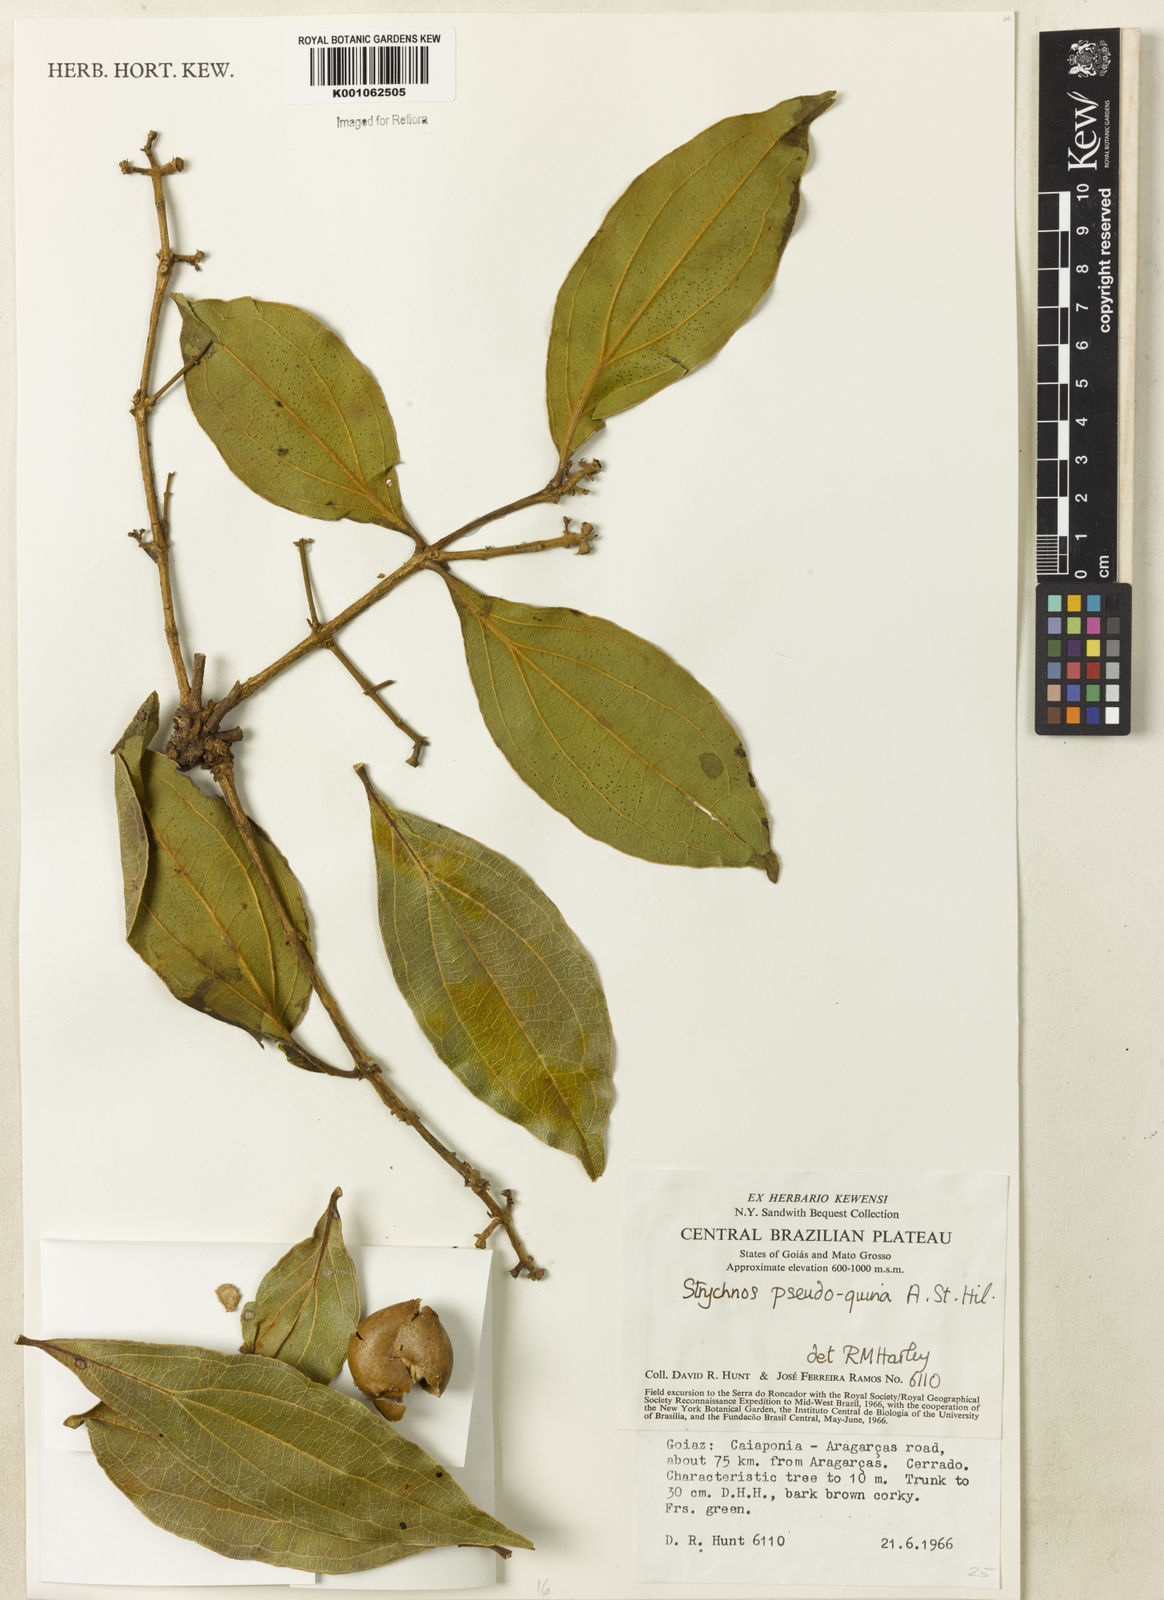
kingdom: Plantae
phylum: Tracheophyta
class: Magnoliopsida
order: Gentianales
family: Loganiaceae
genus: Strychnos
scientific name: Strychnos pseudoquina
